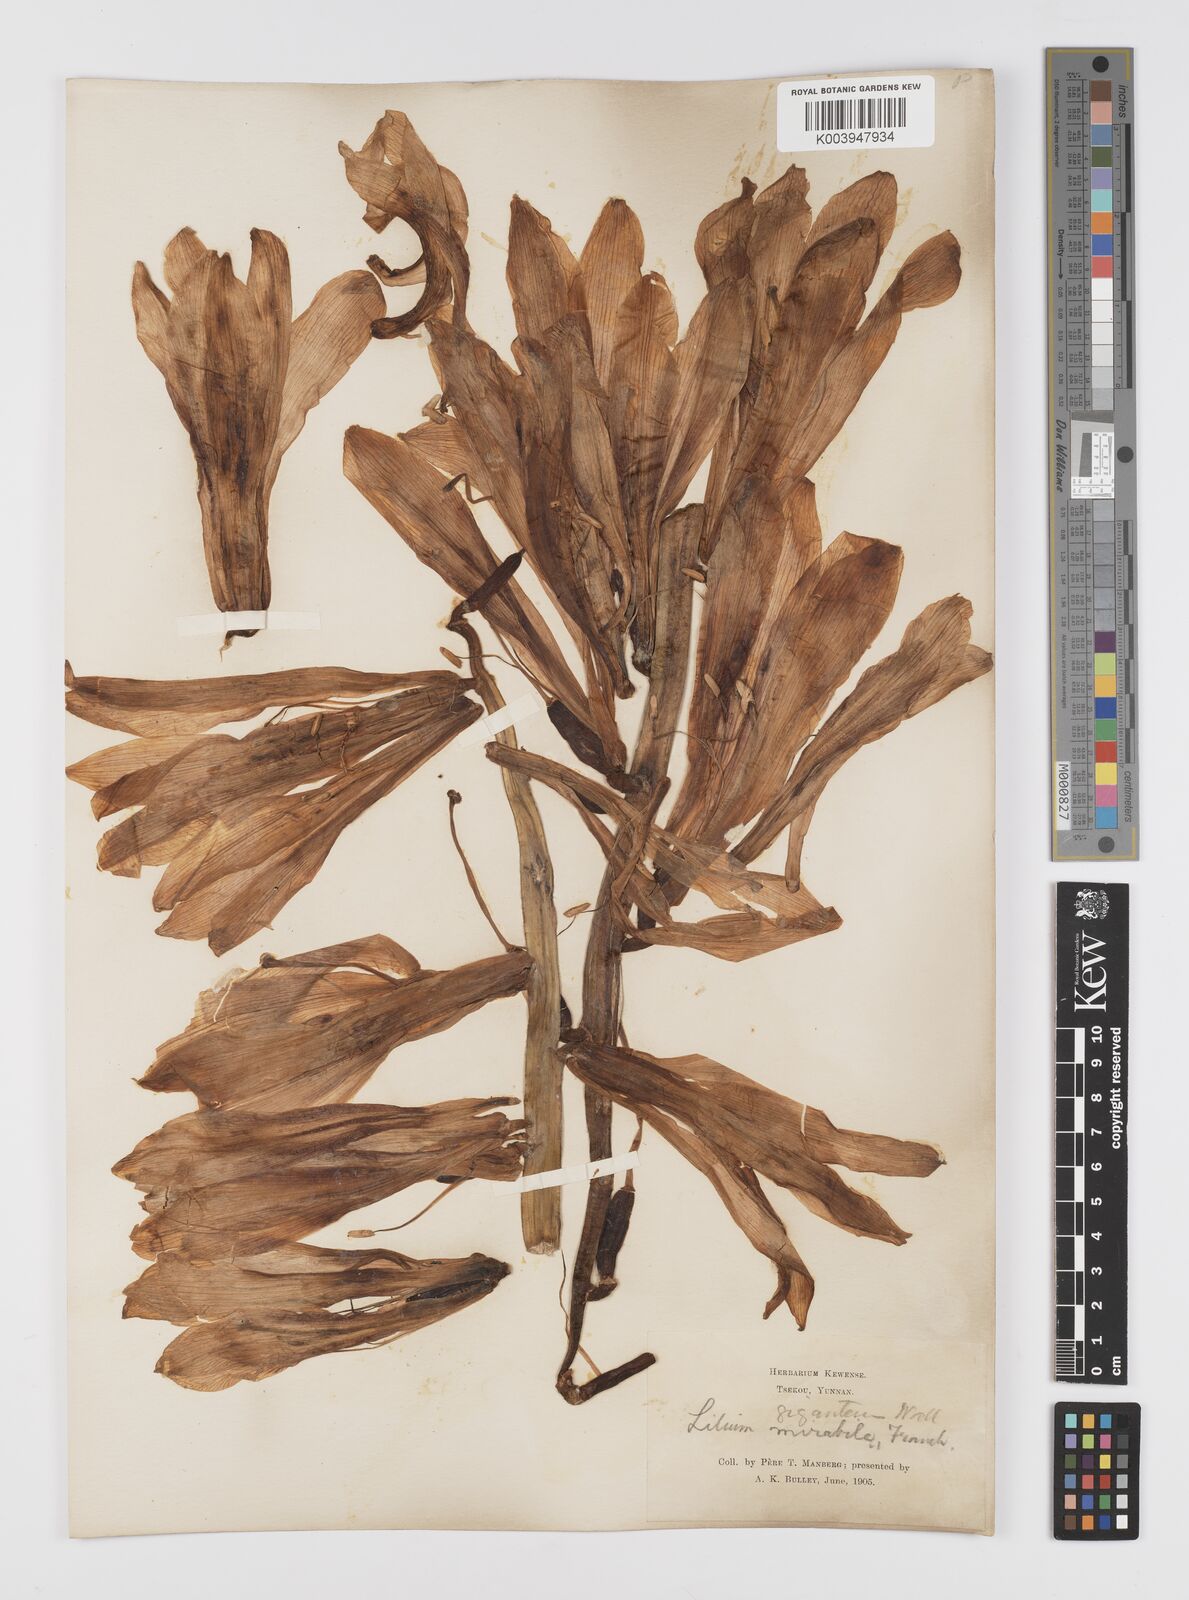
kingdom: Plantae
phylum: Tracheophyta
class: Liliopsida
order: Liliales
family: Liliaceae
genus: Cardiocrinum
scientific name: Cardiocrinum giganteum
